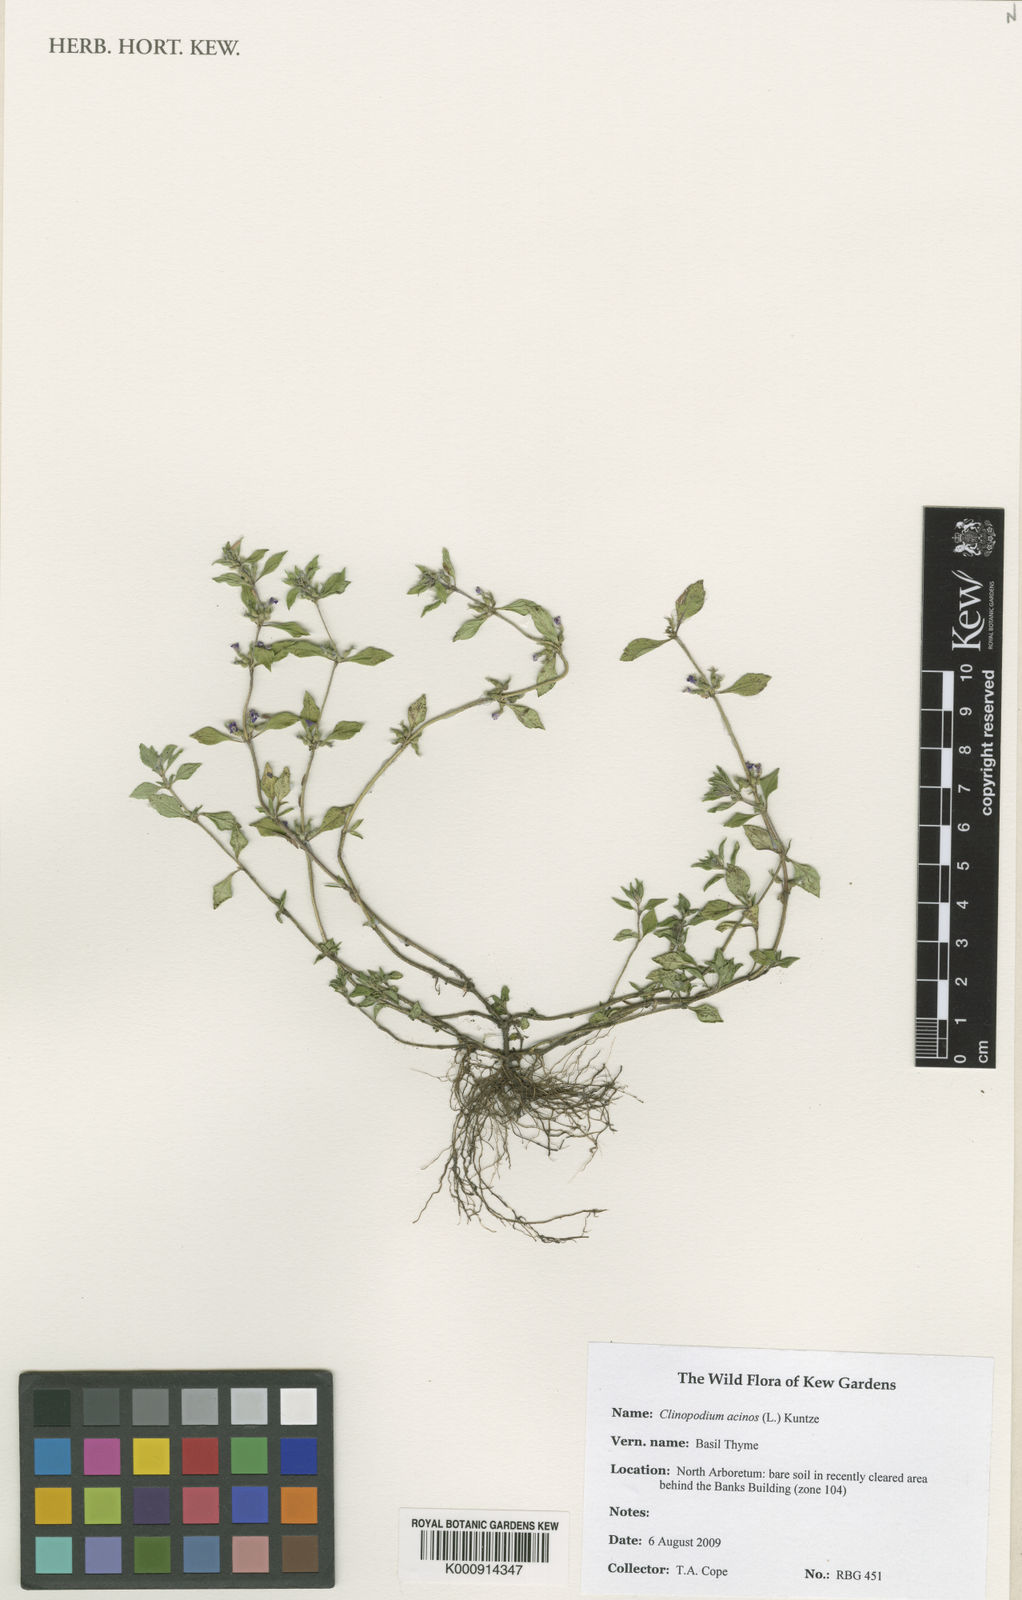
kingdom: Plantae
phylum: Tracheophyta
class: Magnoliopsida
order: Lamiales
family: Lamiaceae
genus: Clinopodium
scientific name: Clinopodium acinos
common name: Basil thyme
